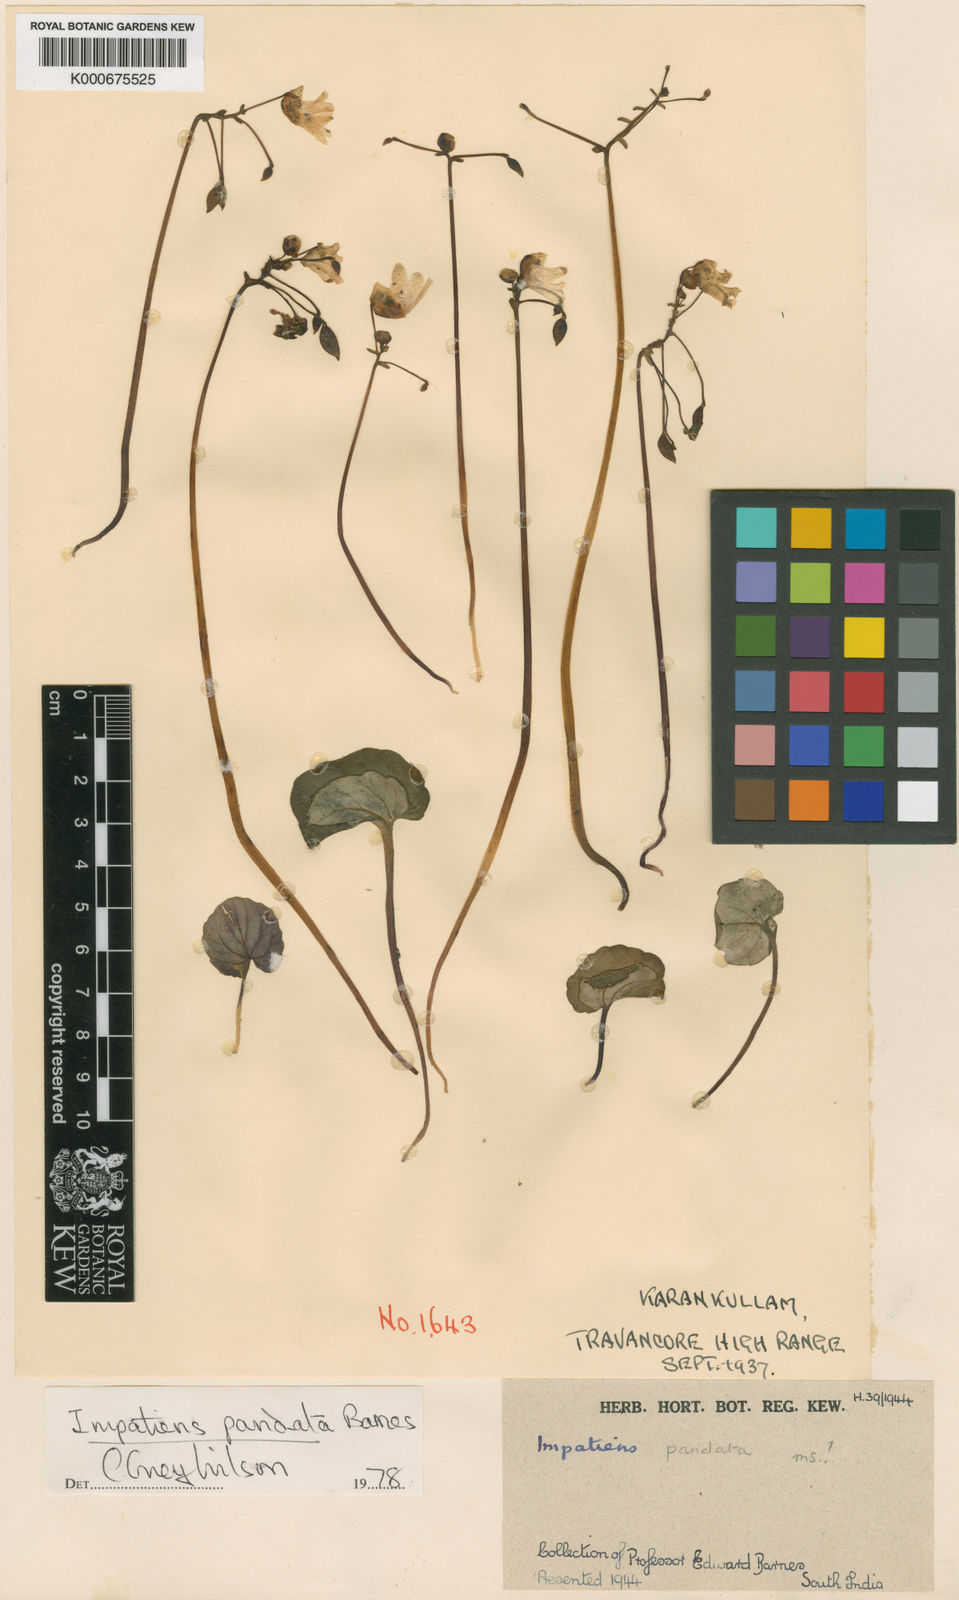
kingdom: Plantae
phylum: Tracheophyta
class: Magnoliopsida
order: Ericales
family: Balsaminaceae
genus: Impatiens
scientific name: Impatiens pandata
